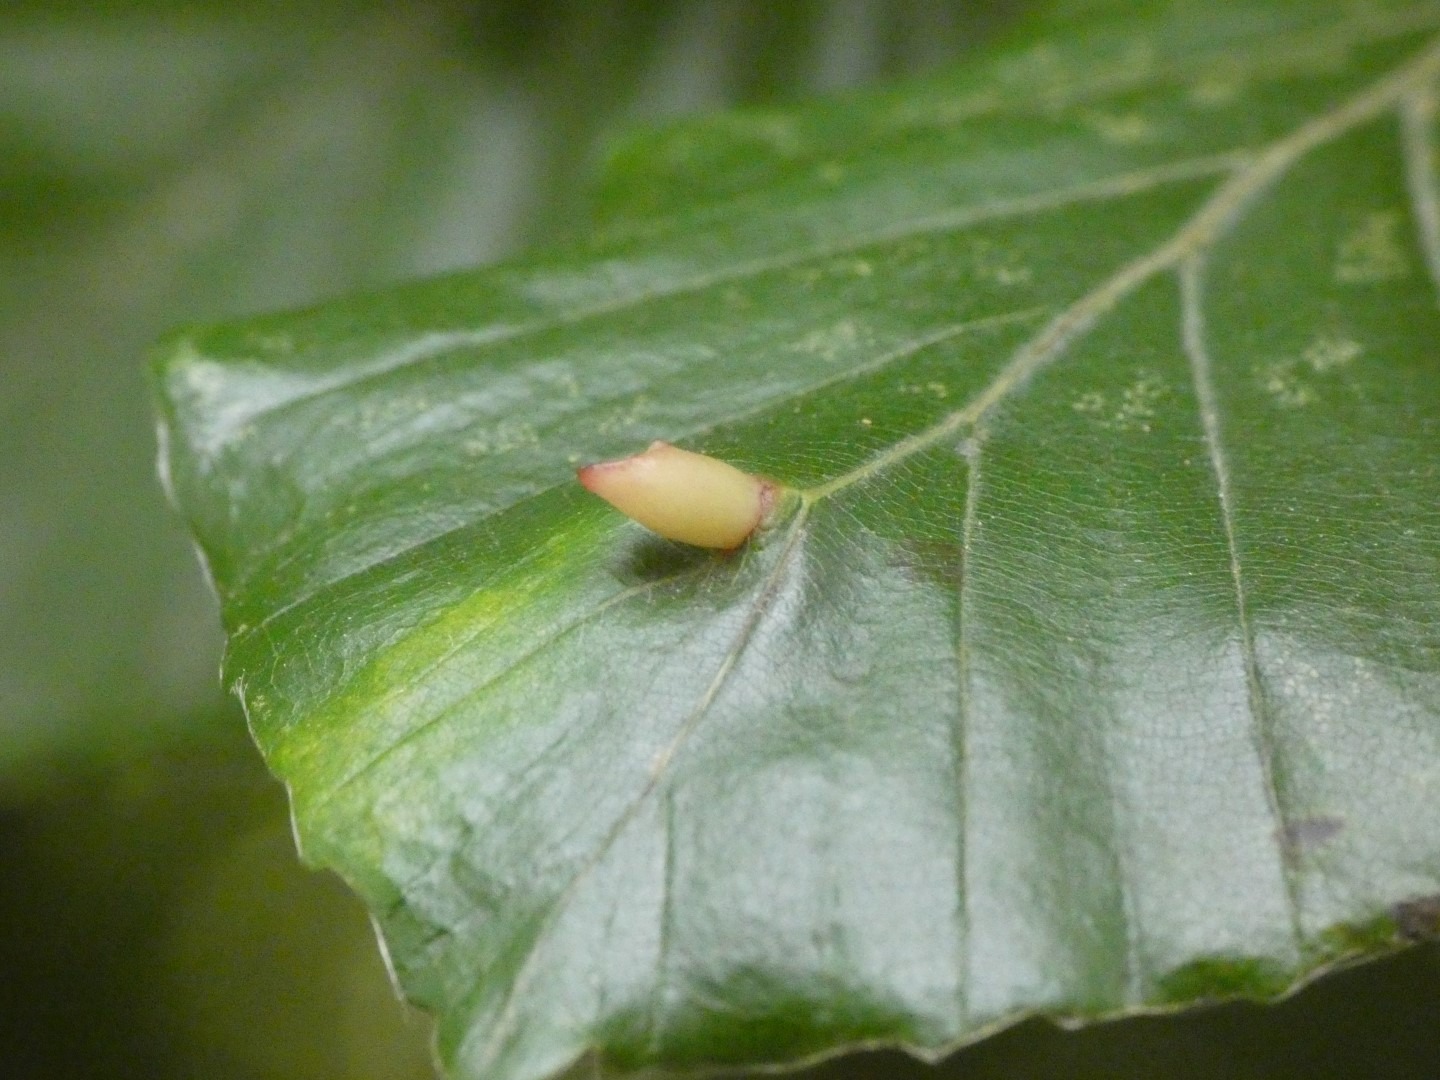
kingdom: Animalia
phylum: Arthropoda
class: Insecta
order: Diptera
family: Cecidomyiidae
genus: Mikiola
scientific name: Mikiola fagi
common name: Bøgegalmyg
